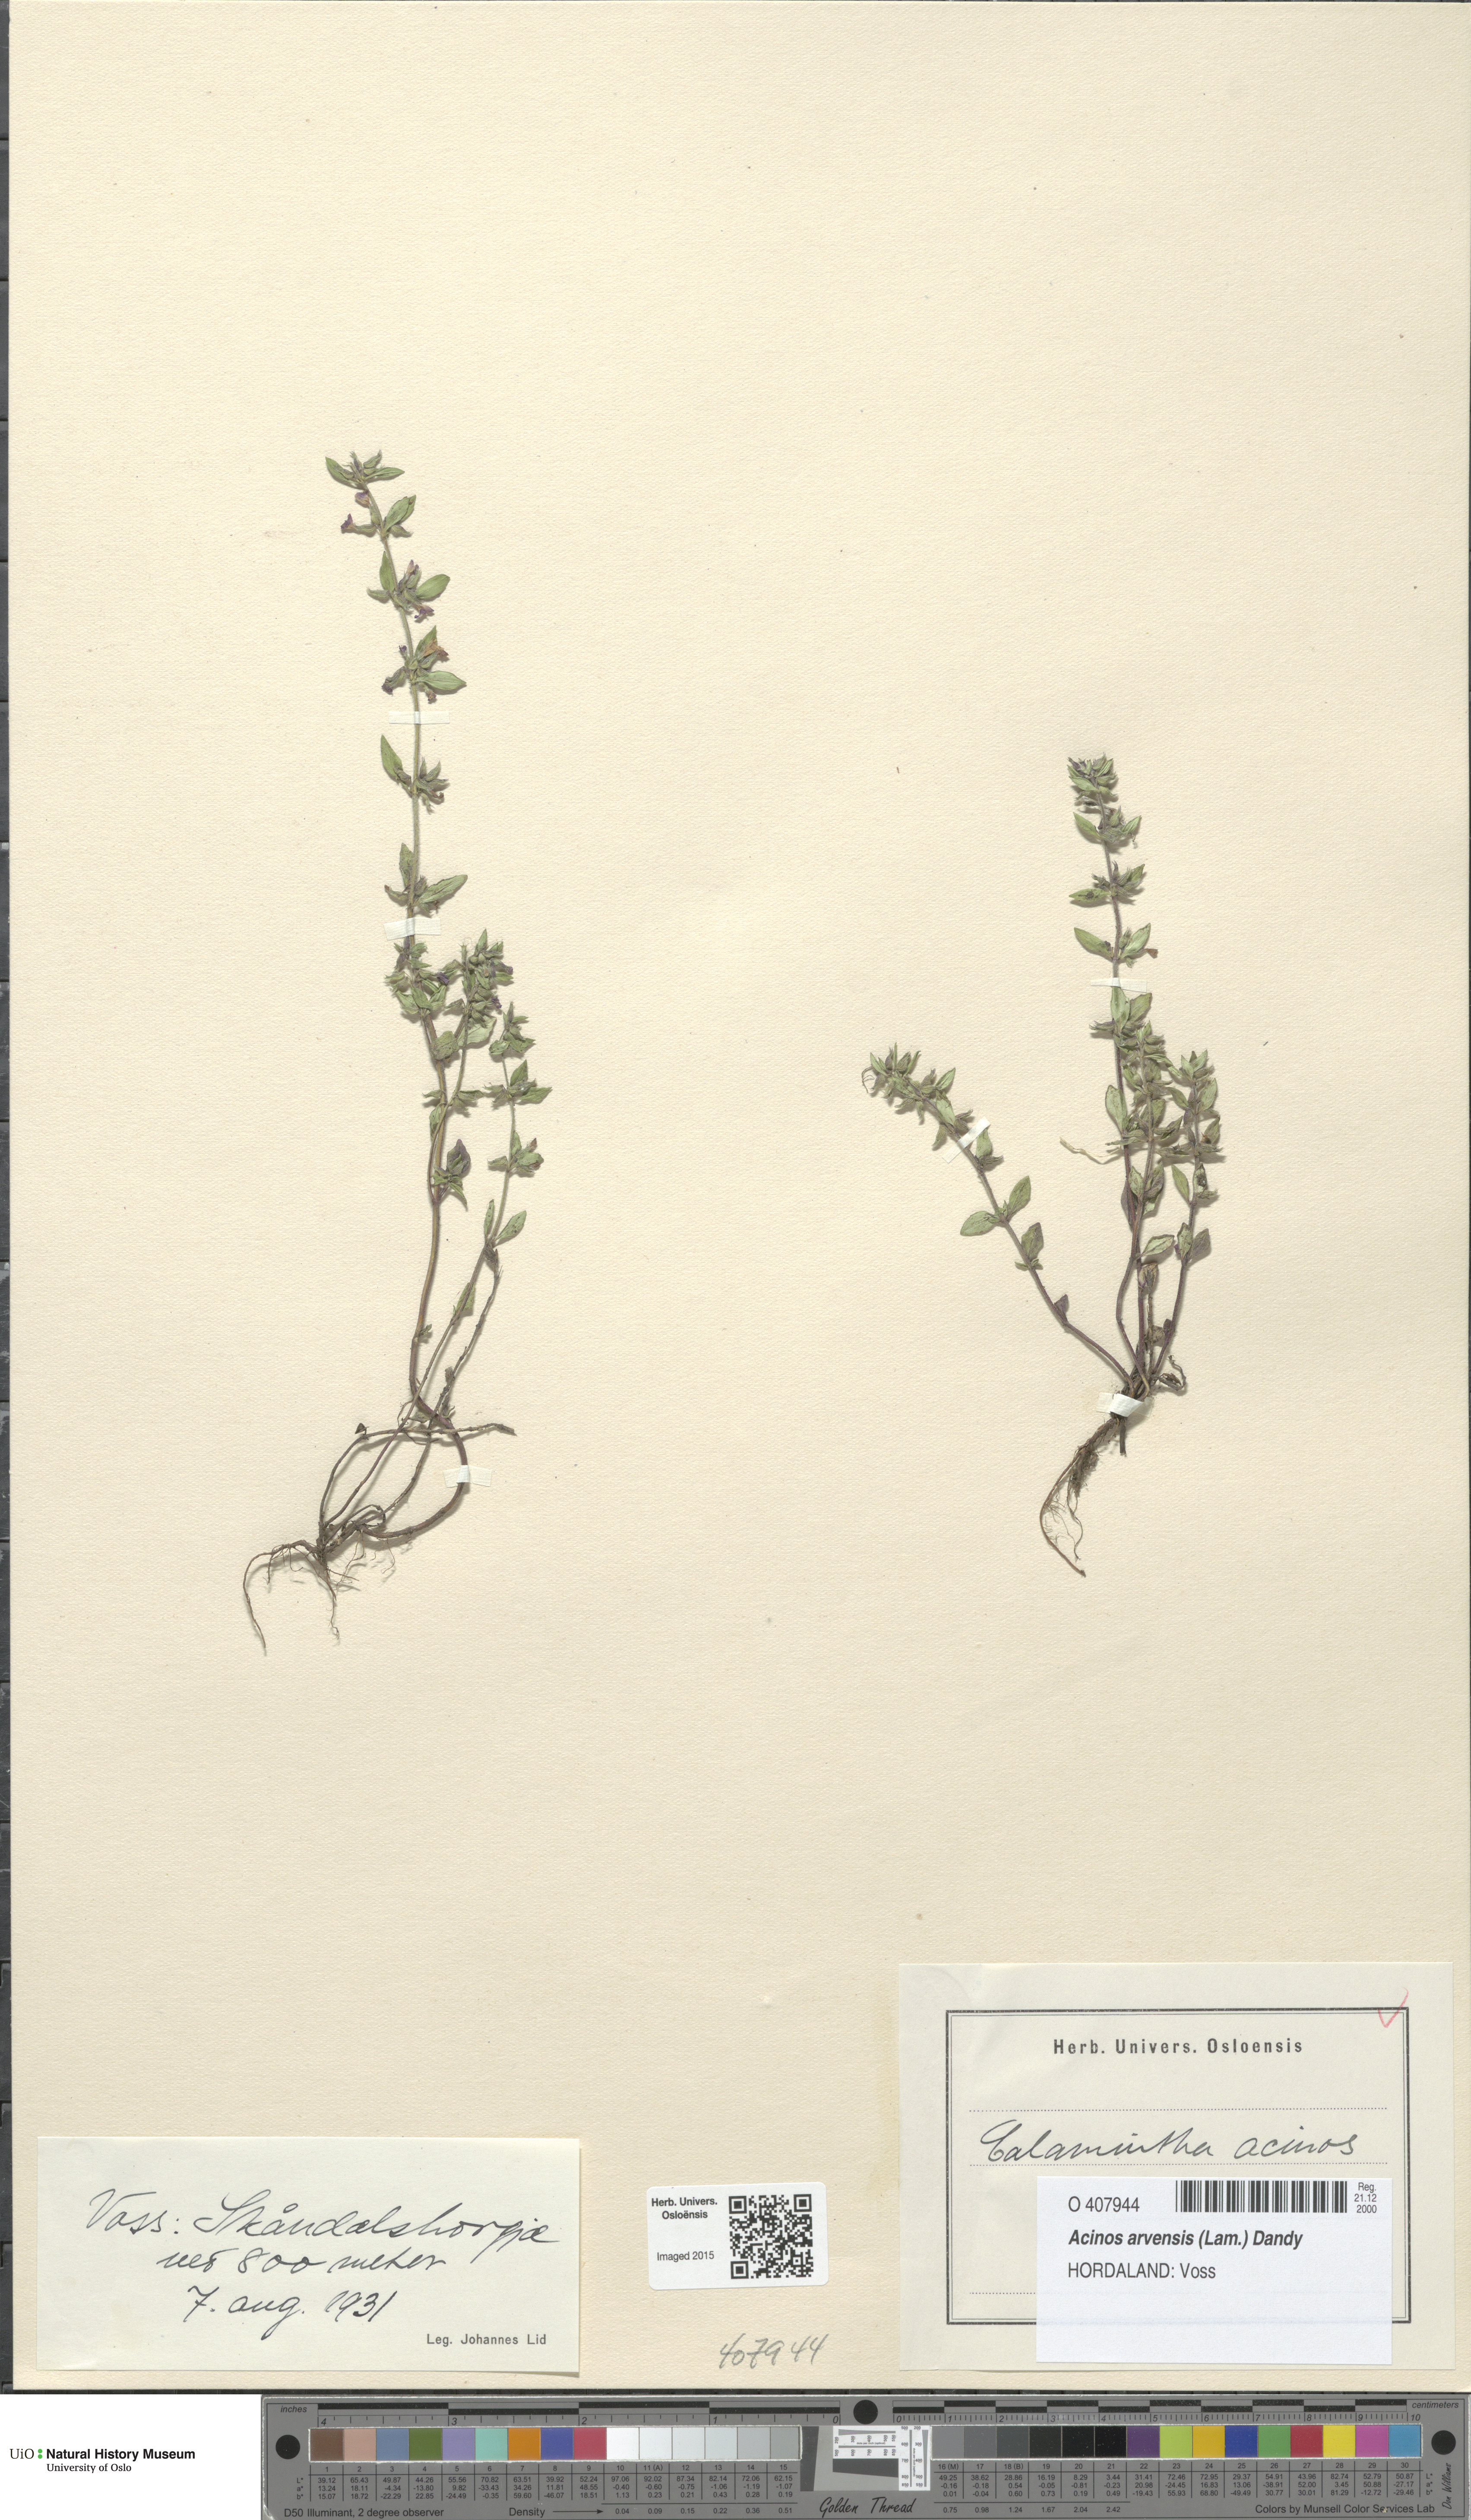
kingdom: Plantae
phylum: Tracheophyta
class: Magnoliopsida
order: Lamiales
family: Lamiaceae
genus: Clinopodium
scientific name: Clinopodium acinos
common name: Basil thyme
